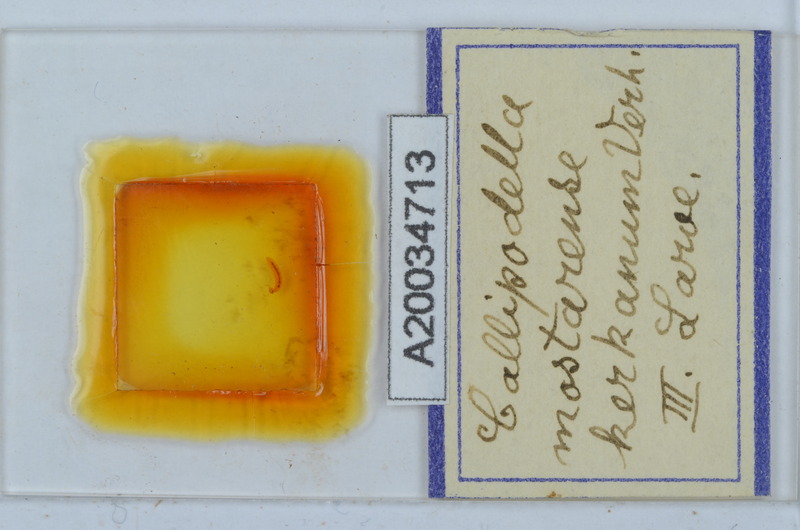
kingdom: Animalia
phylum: Arthropoda
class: Diplopoda
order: Callipodida
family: Schizopetalidae
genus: Callipodella
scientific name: Callipodella mostarensis
